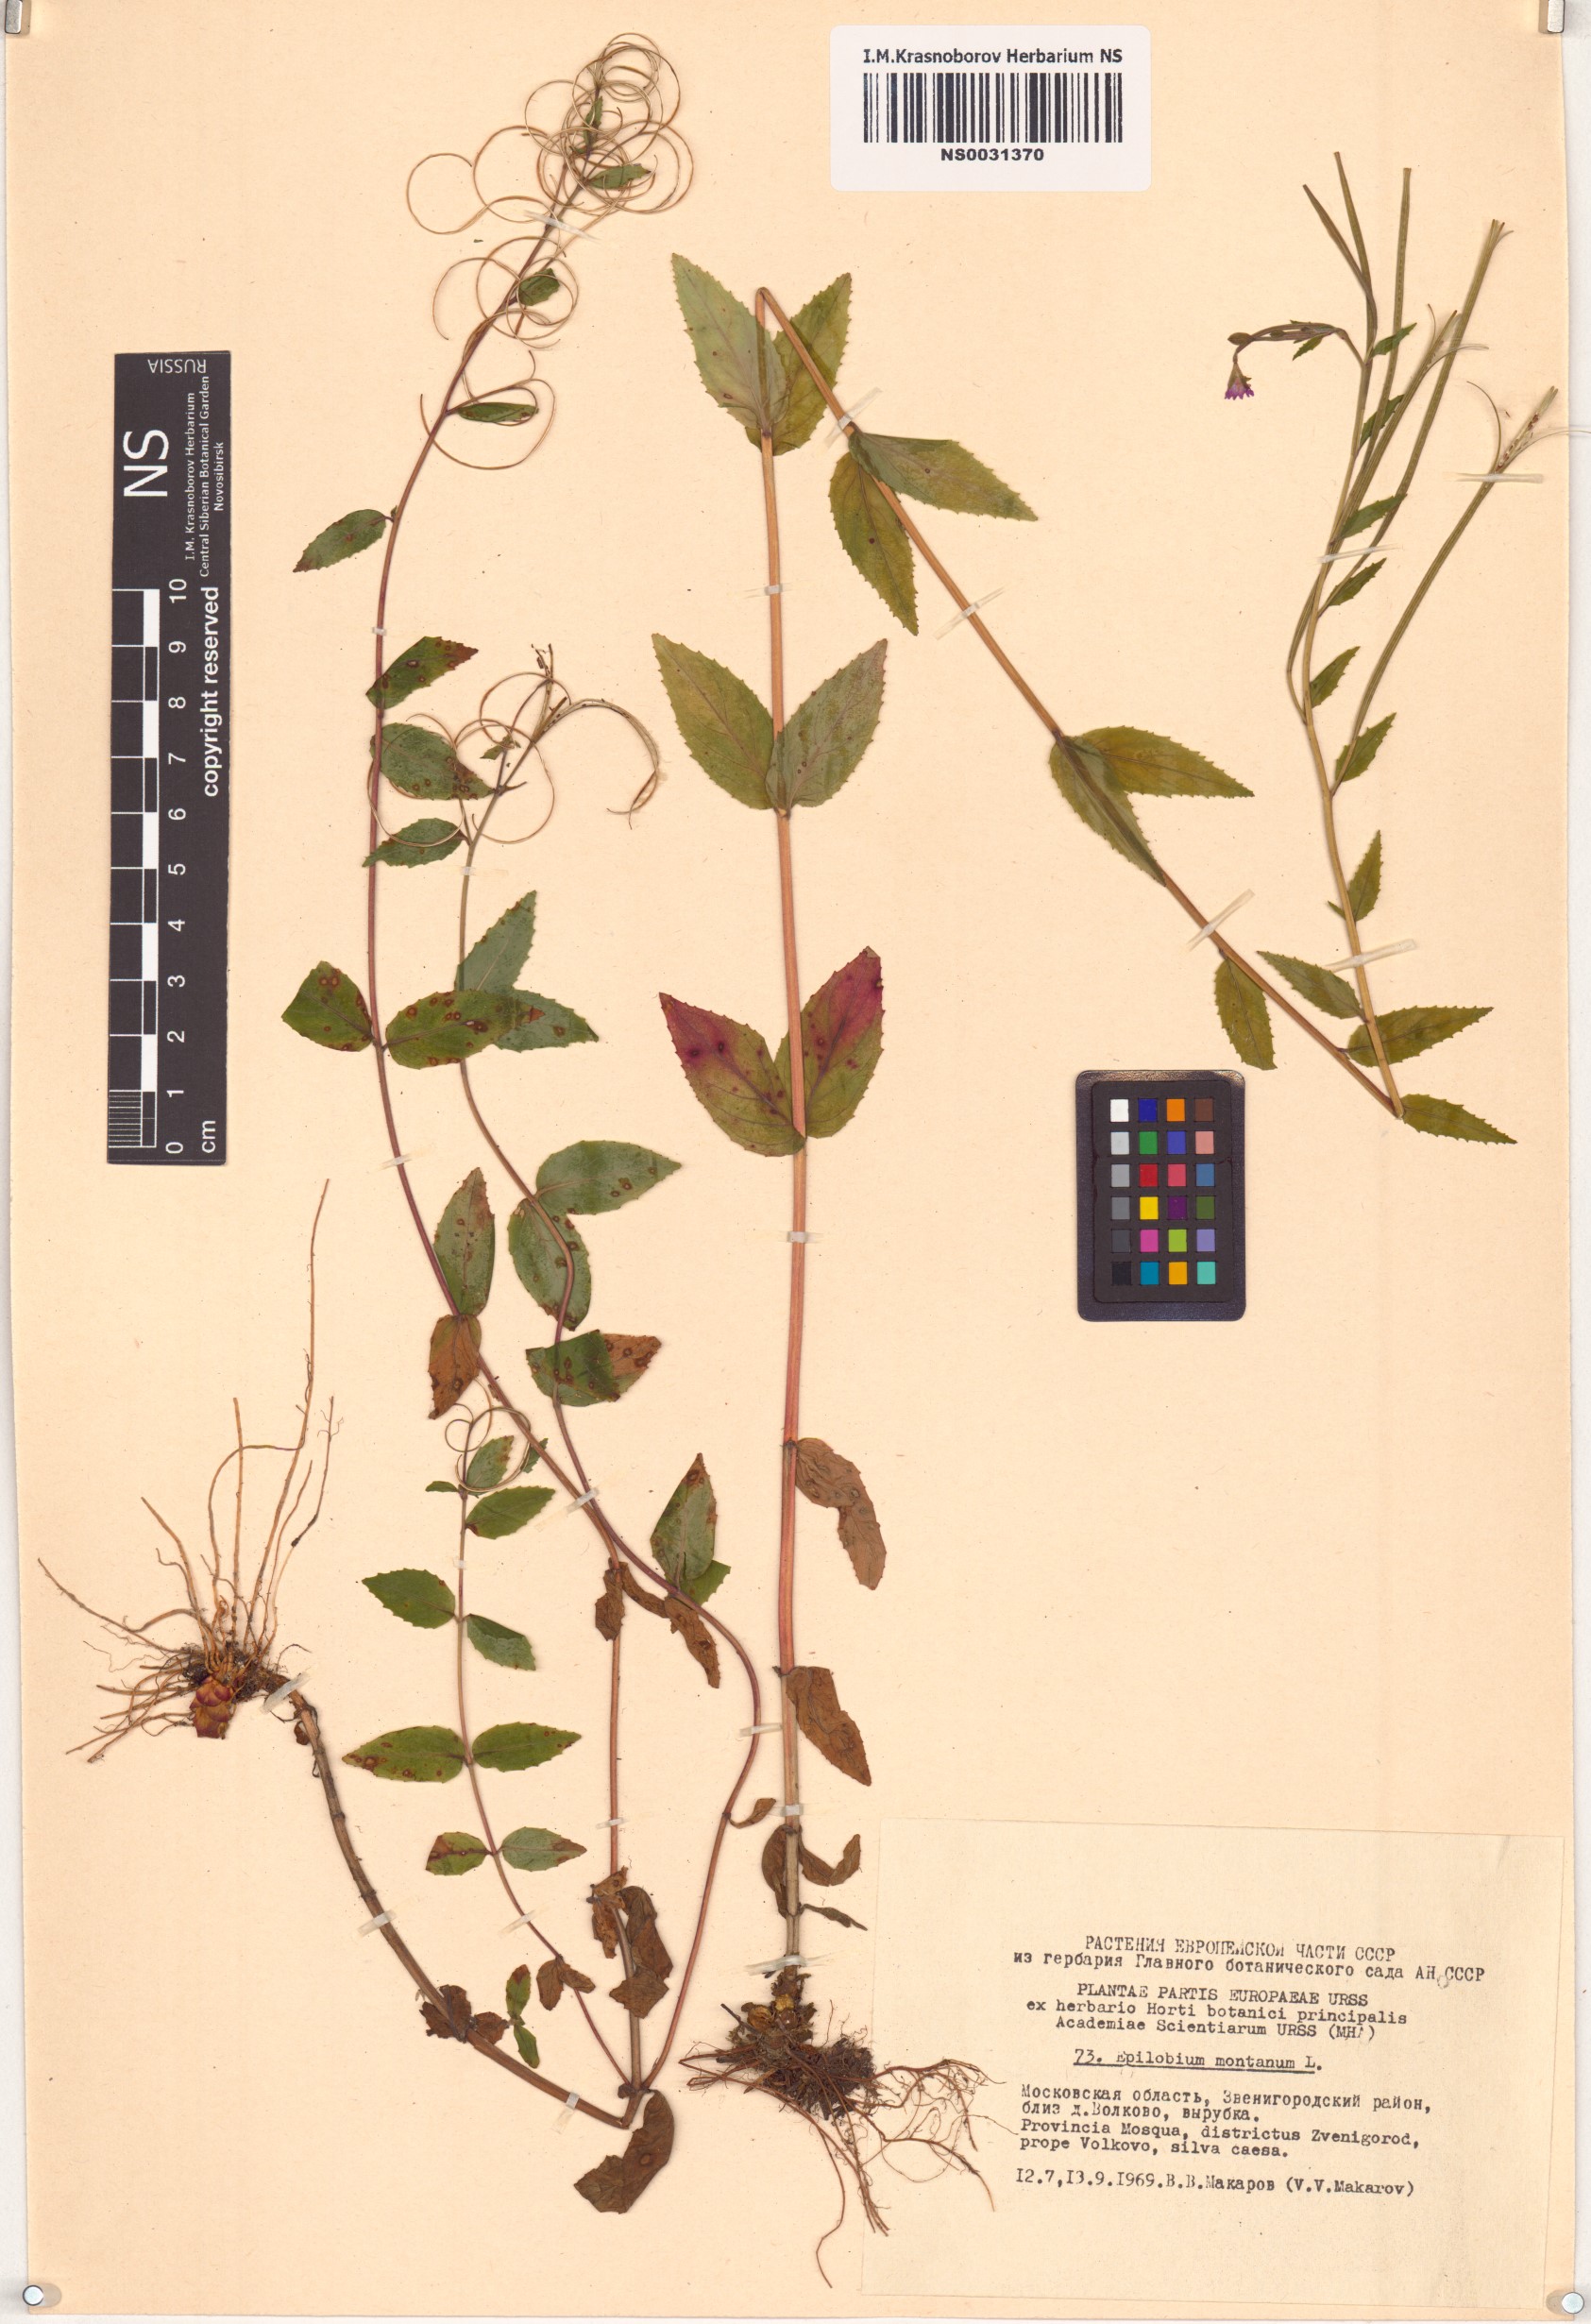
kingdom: Plantae
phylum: Tracheophyta
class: Magnoliopsida
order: Myrtales
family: Onagraceae
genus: Epilobium
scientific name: Epilobium montanum
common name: Broad-leaved willowherb
